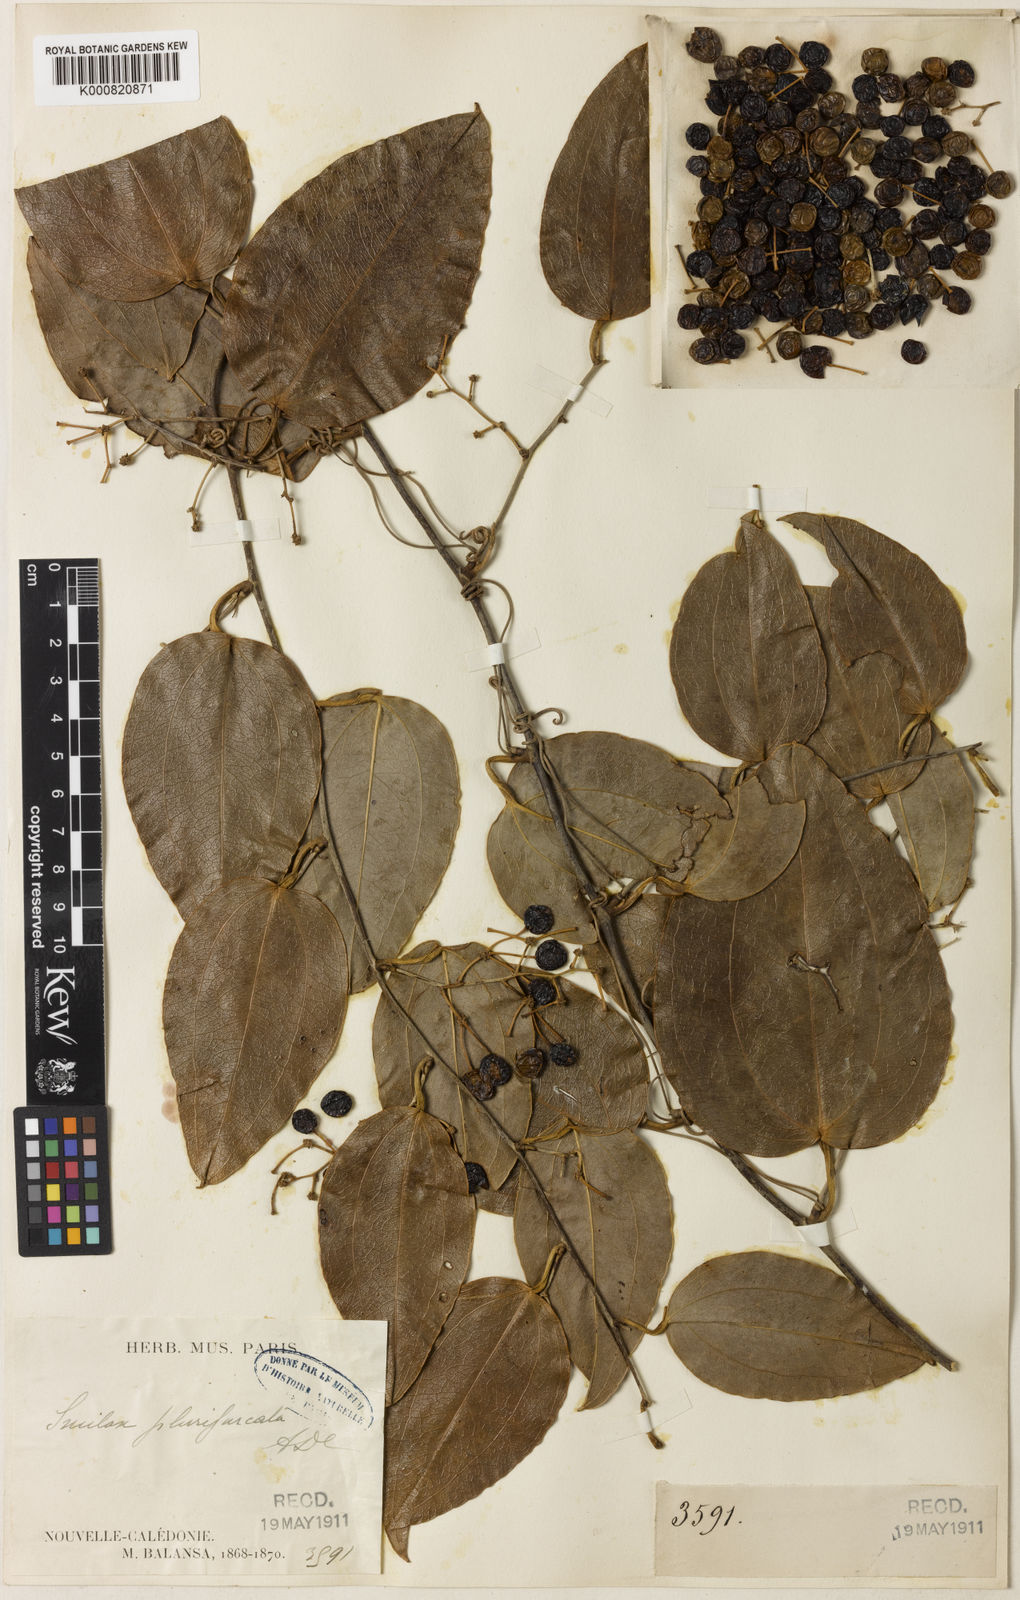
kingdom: Plantae
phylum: Tracheophyta
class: Liliopsida
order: Liliales
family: Smilacaceae
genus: Smilax
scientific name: Smilax plurifurcata
